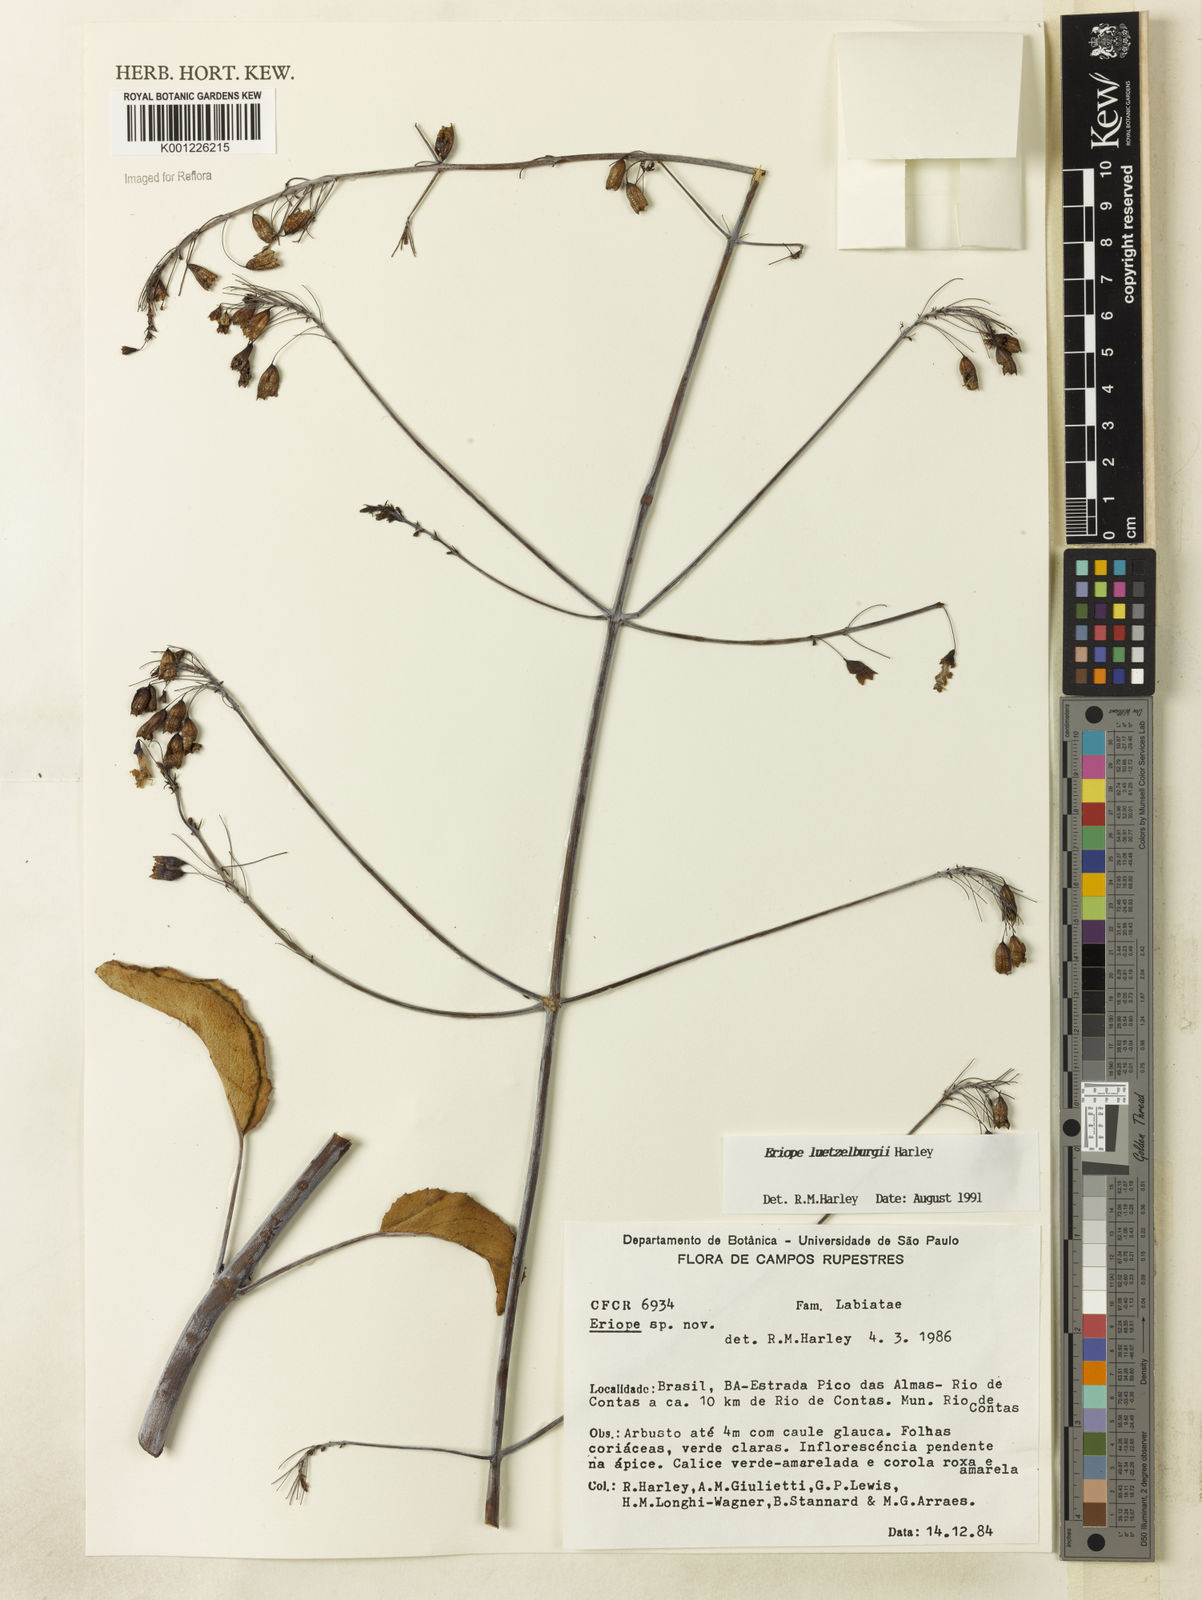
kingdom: Plantae
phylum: Tracheophyta
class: Magnoliopsida
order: Lamiales
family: Lamiaceae
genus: Eriope
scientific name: Eriope luetzelburgii
